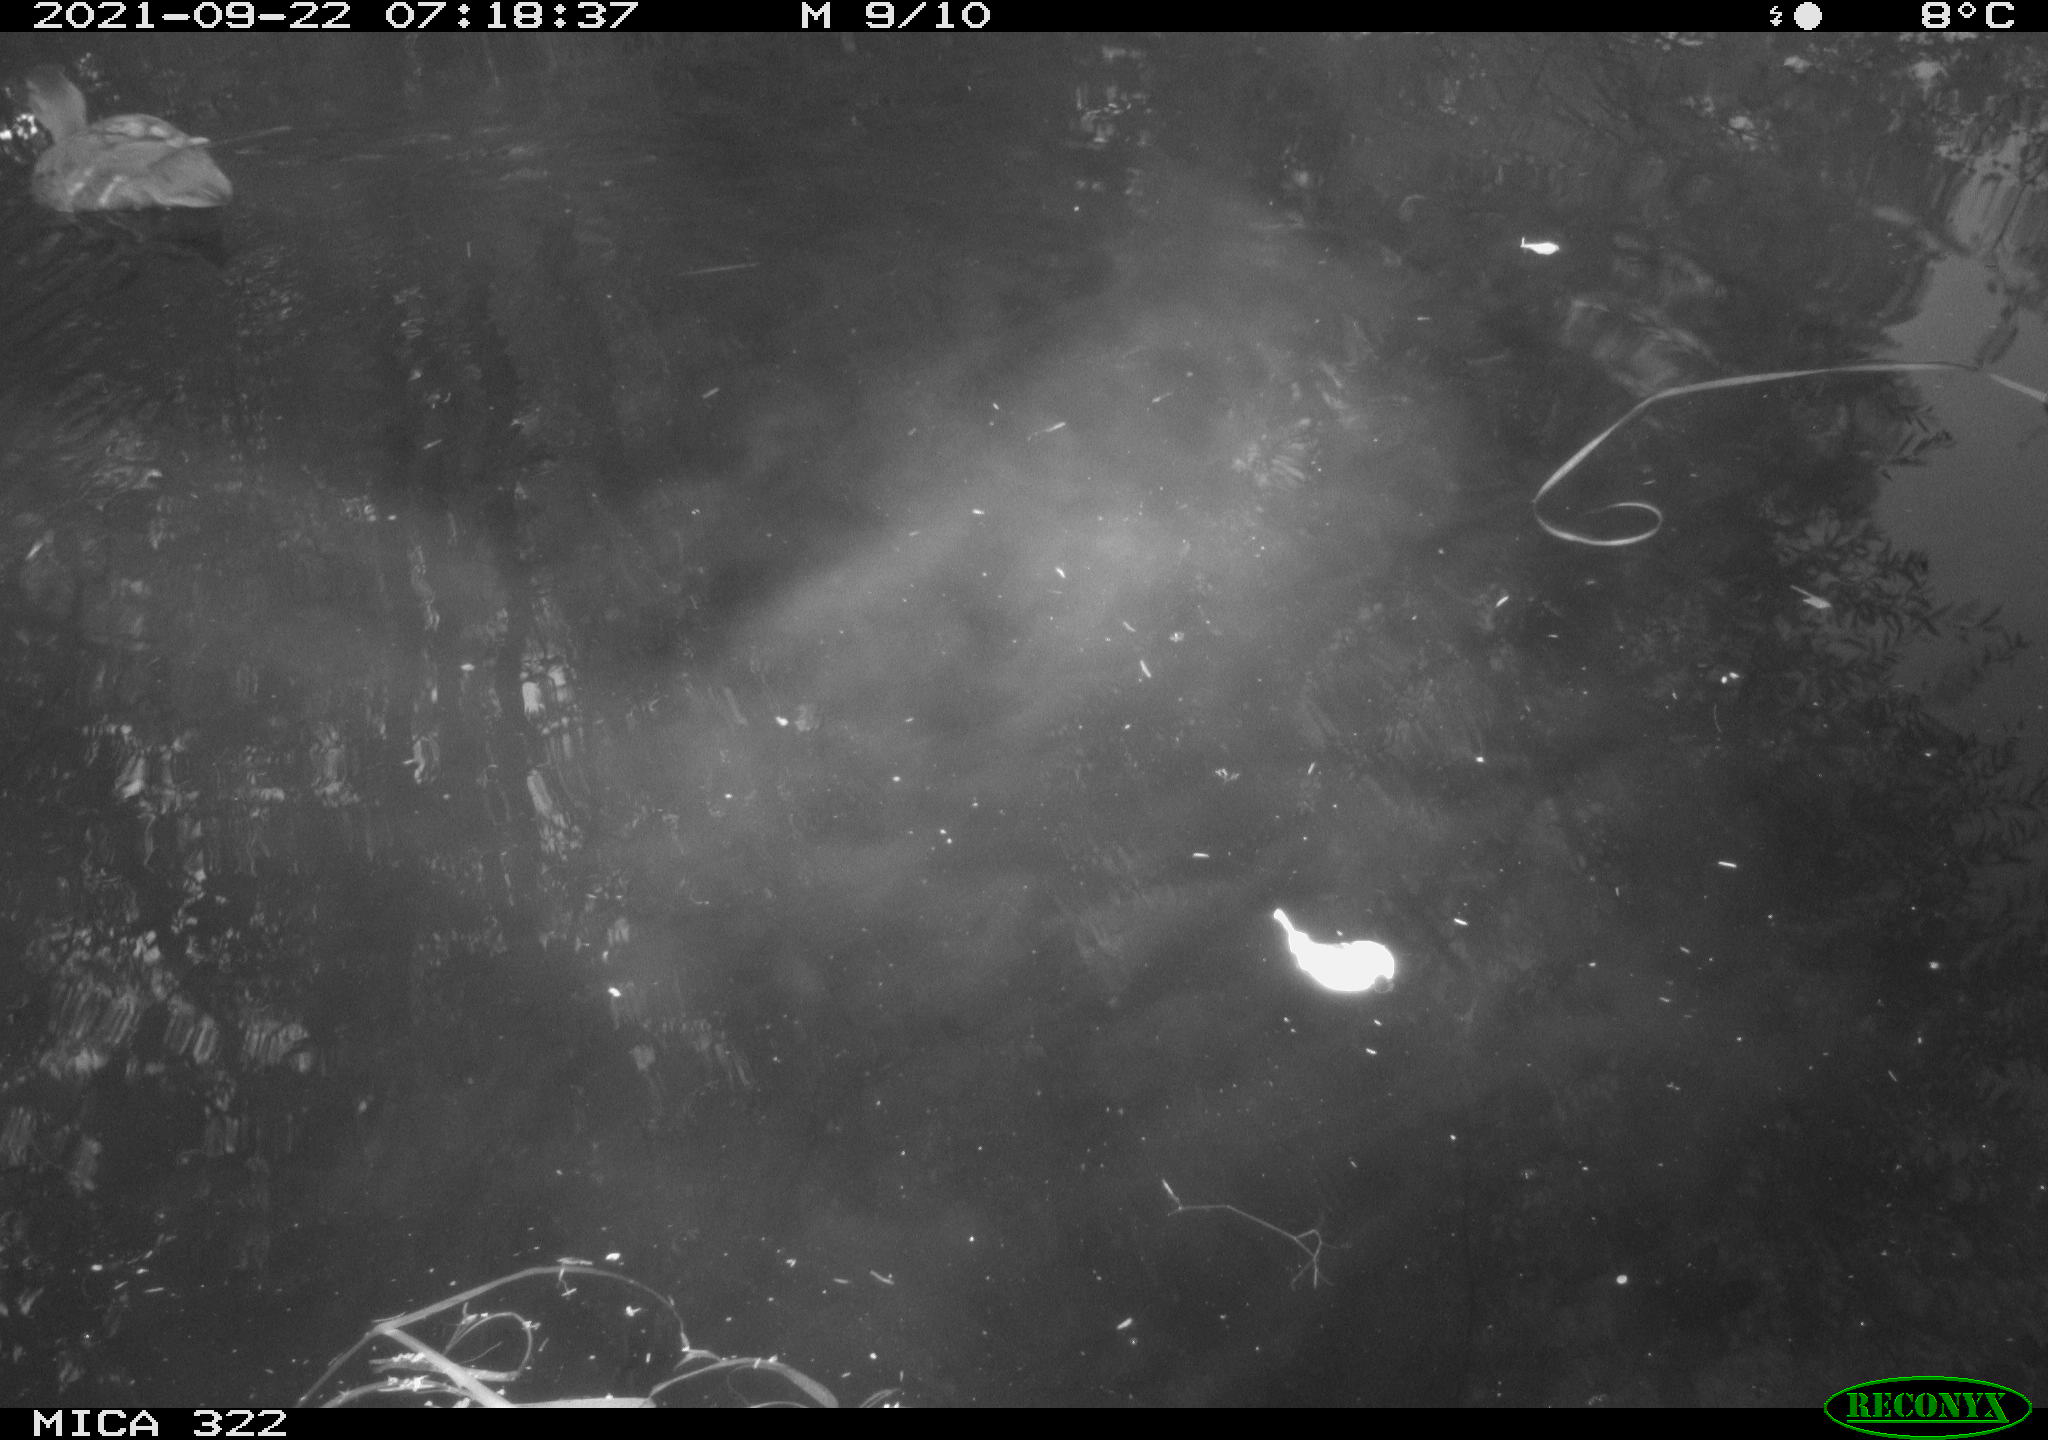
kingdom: Animalia
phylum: Chordata
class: Aves
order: Pelecaniformes
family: Ardeidae
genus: Ardea
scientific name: Ardea
